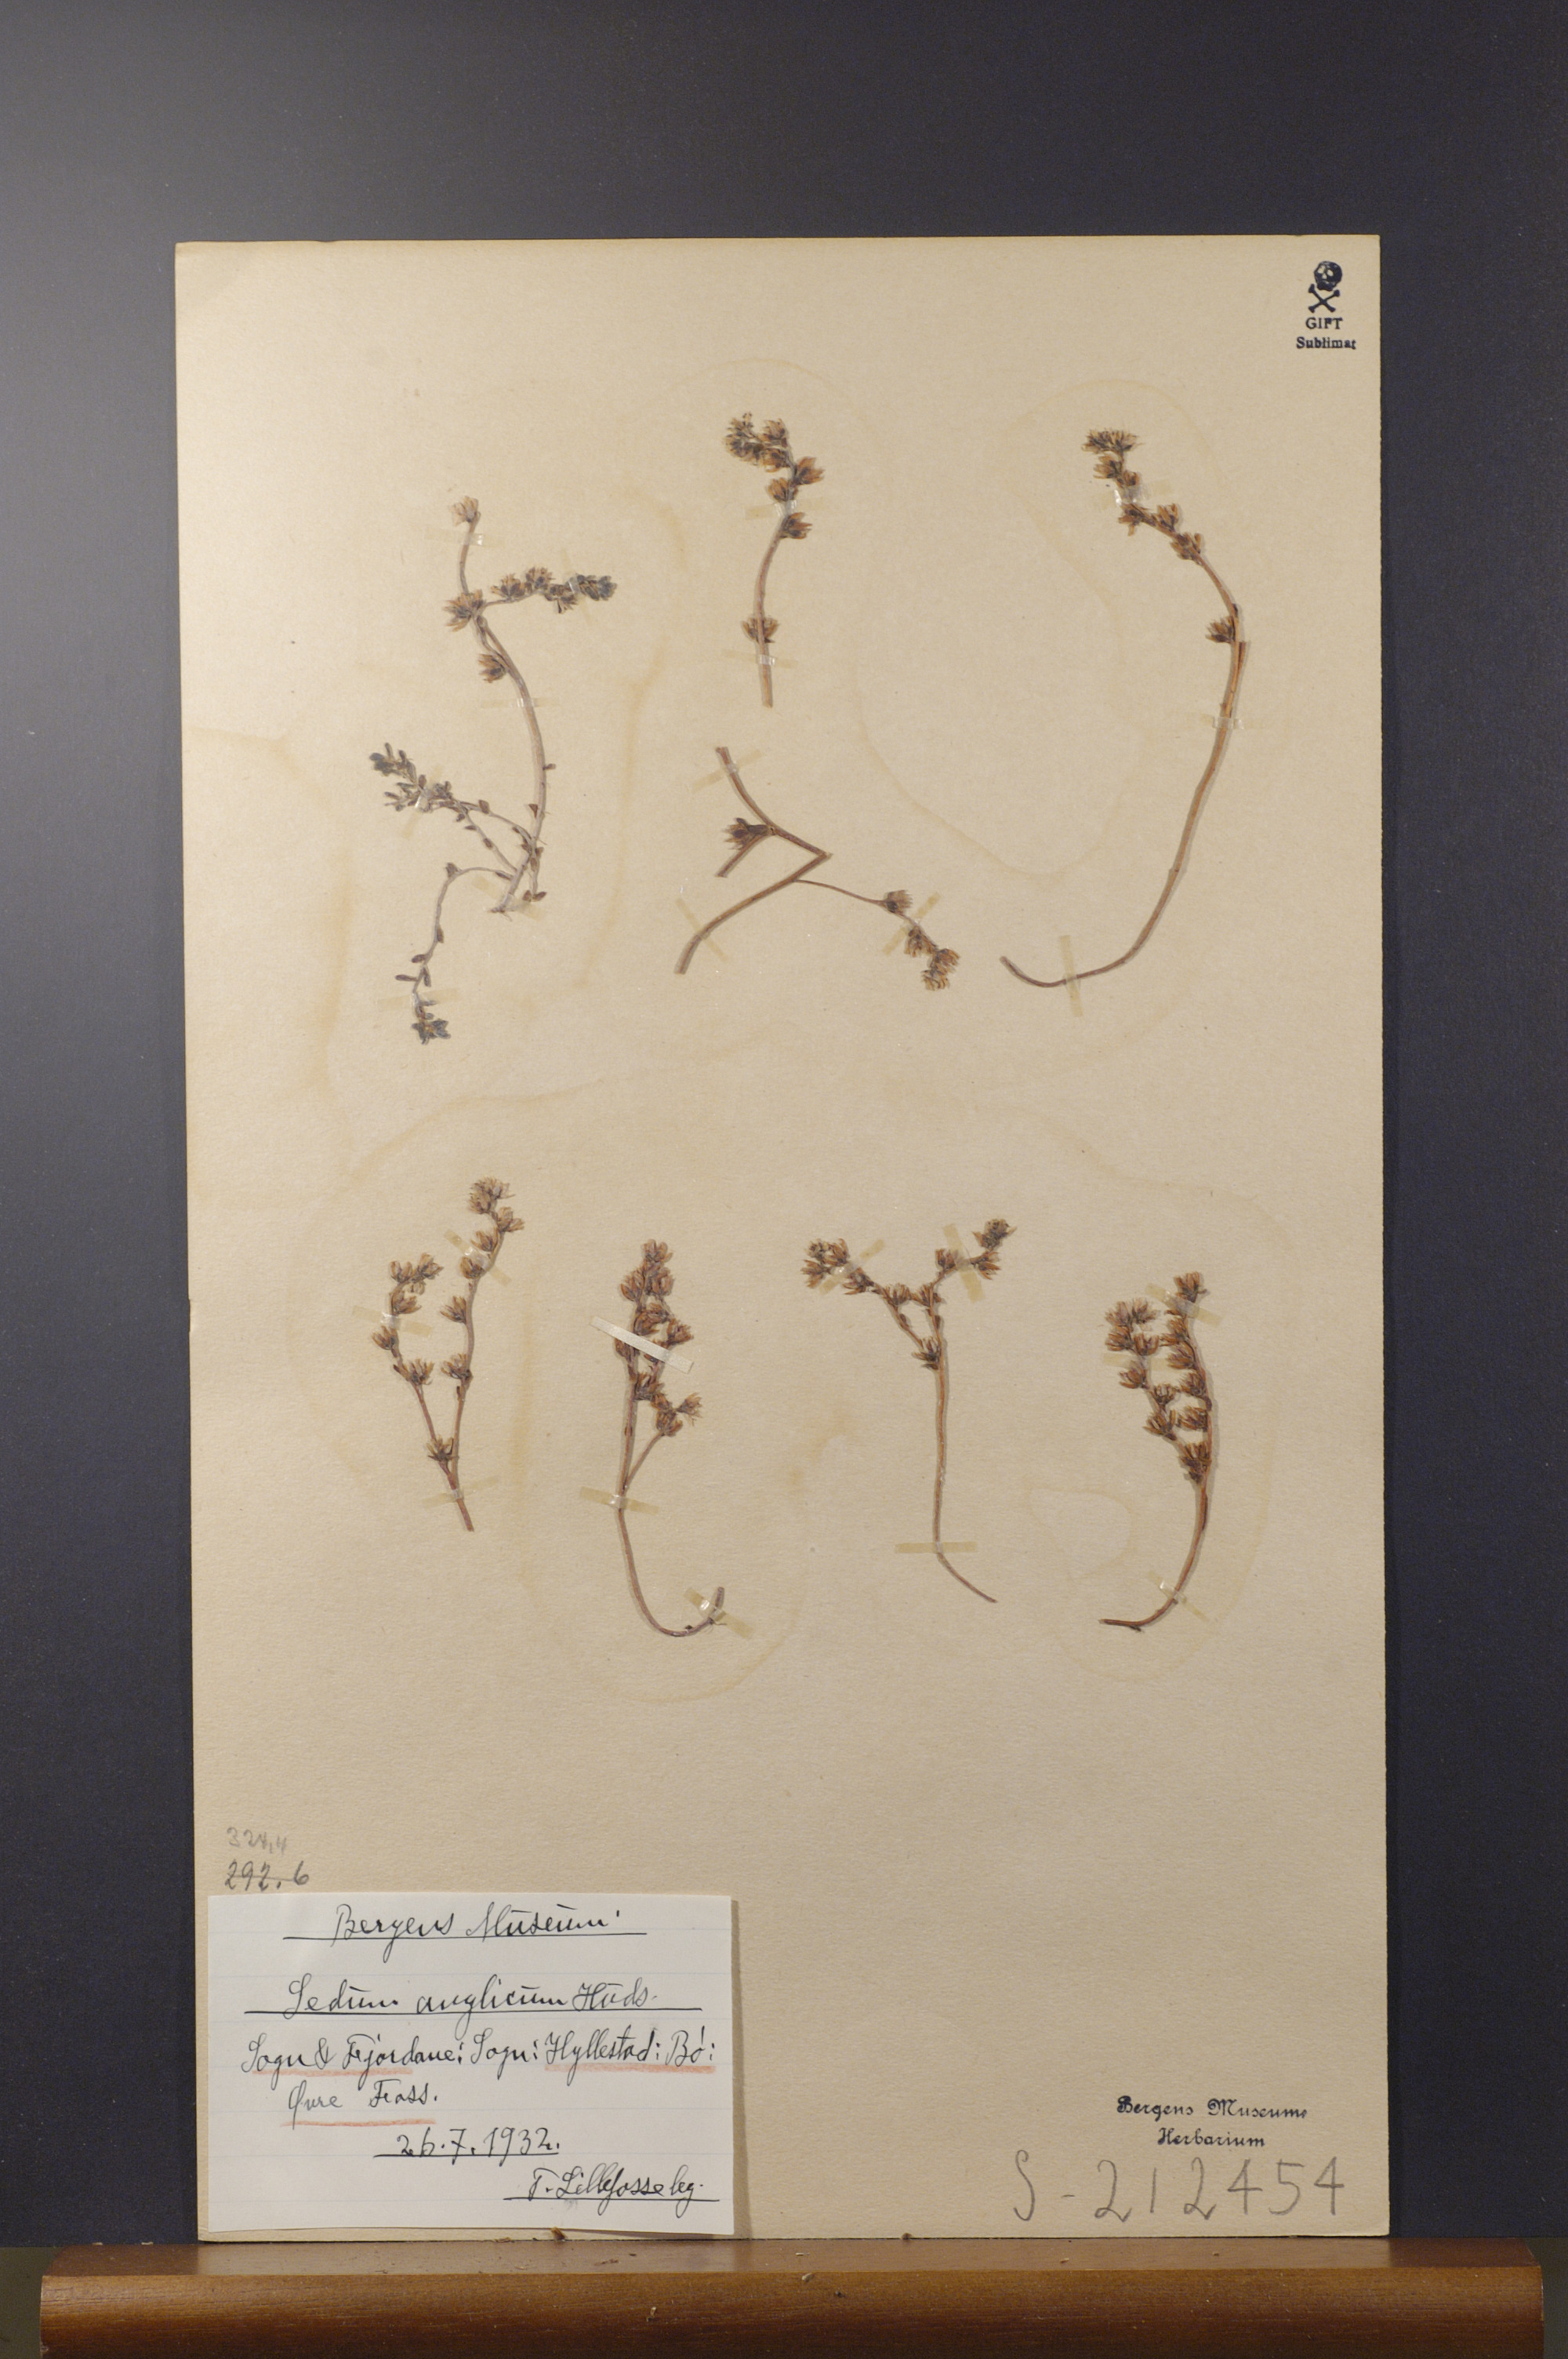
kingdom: Plantae
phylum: Tracheophyta
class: Magnoliopsida
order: Saxifragales
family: Crassulaceae
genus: Sedum
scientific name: Sedum anglicum
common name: English stonecrop
